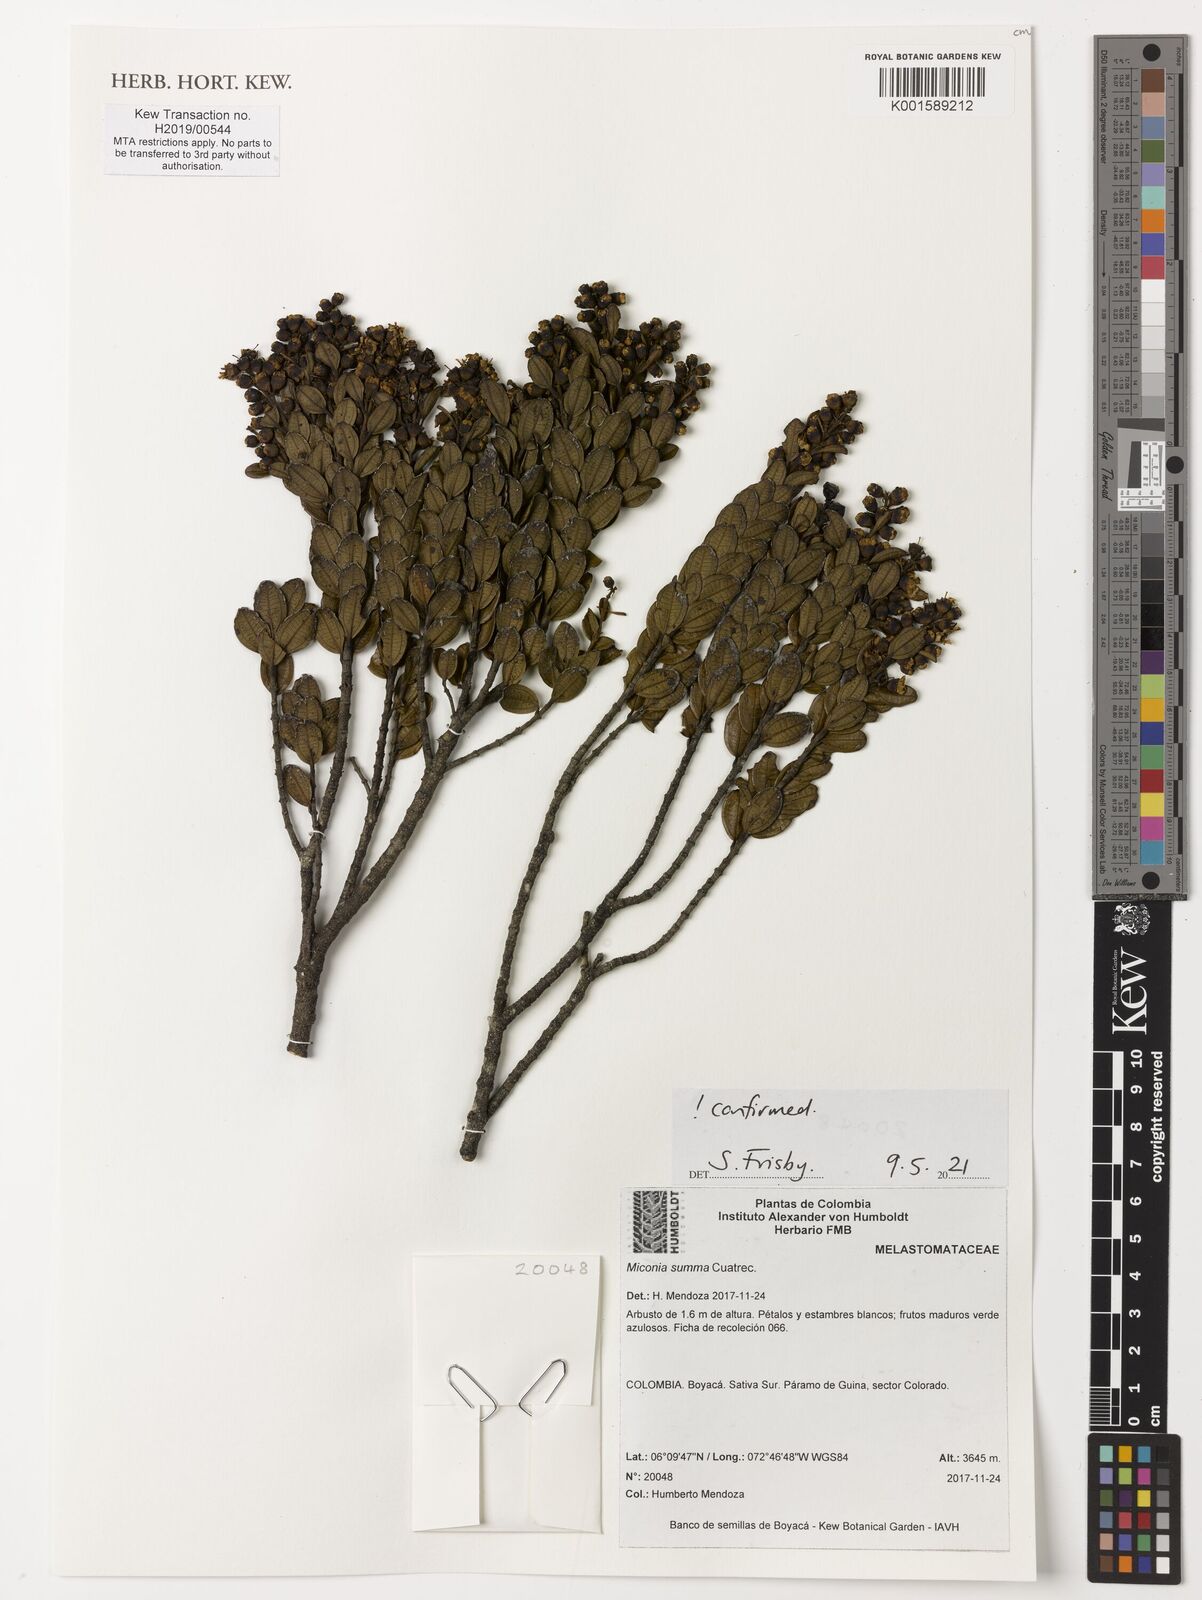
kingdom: Plantae
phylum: Tracheophyta
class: Magnoliopsida
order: Myrtales
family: Melastomataceae
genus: Miconia
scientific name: Miconia summa
